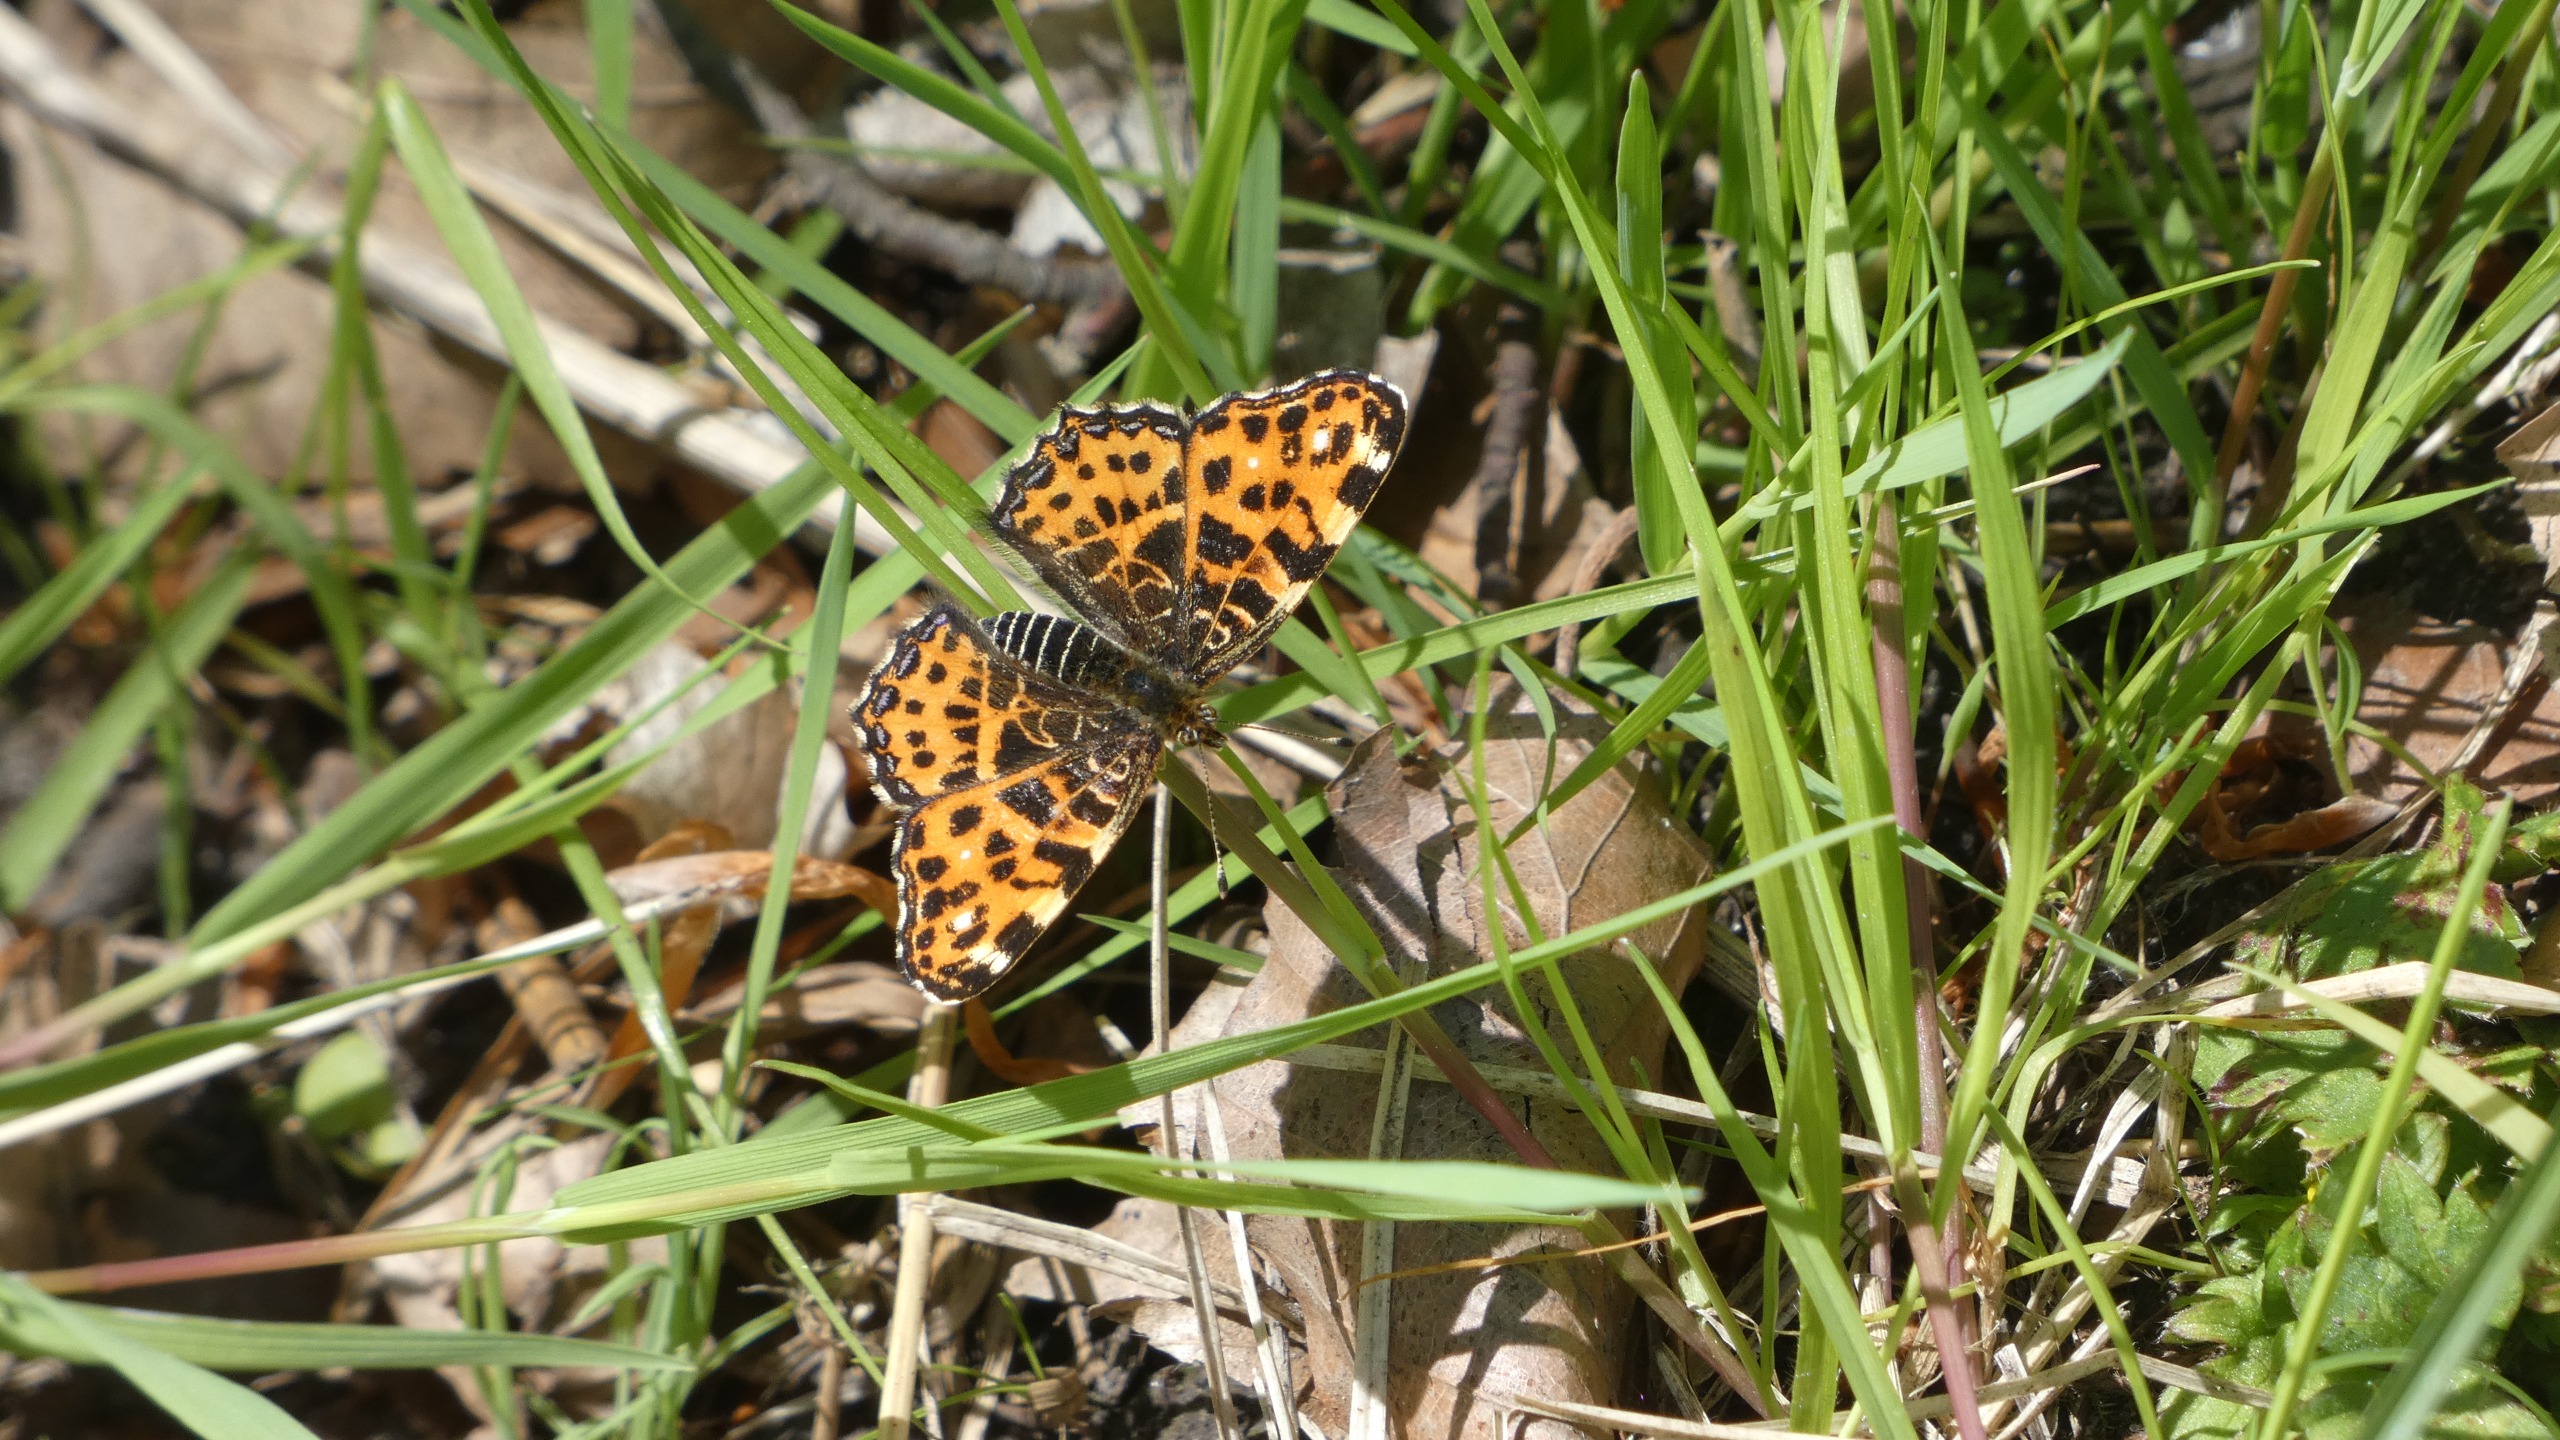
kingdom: Animalia
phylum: Arthropoda
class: Insecta
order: Lepidoptera
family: Nymphalidae
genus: Araschnia
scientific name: Araschnia levana
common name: Nældesommerfugl
